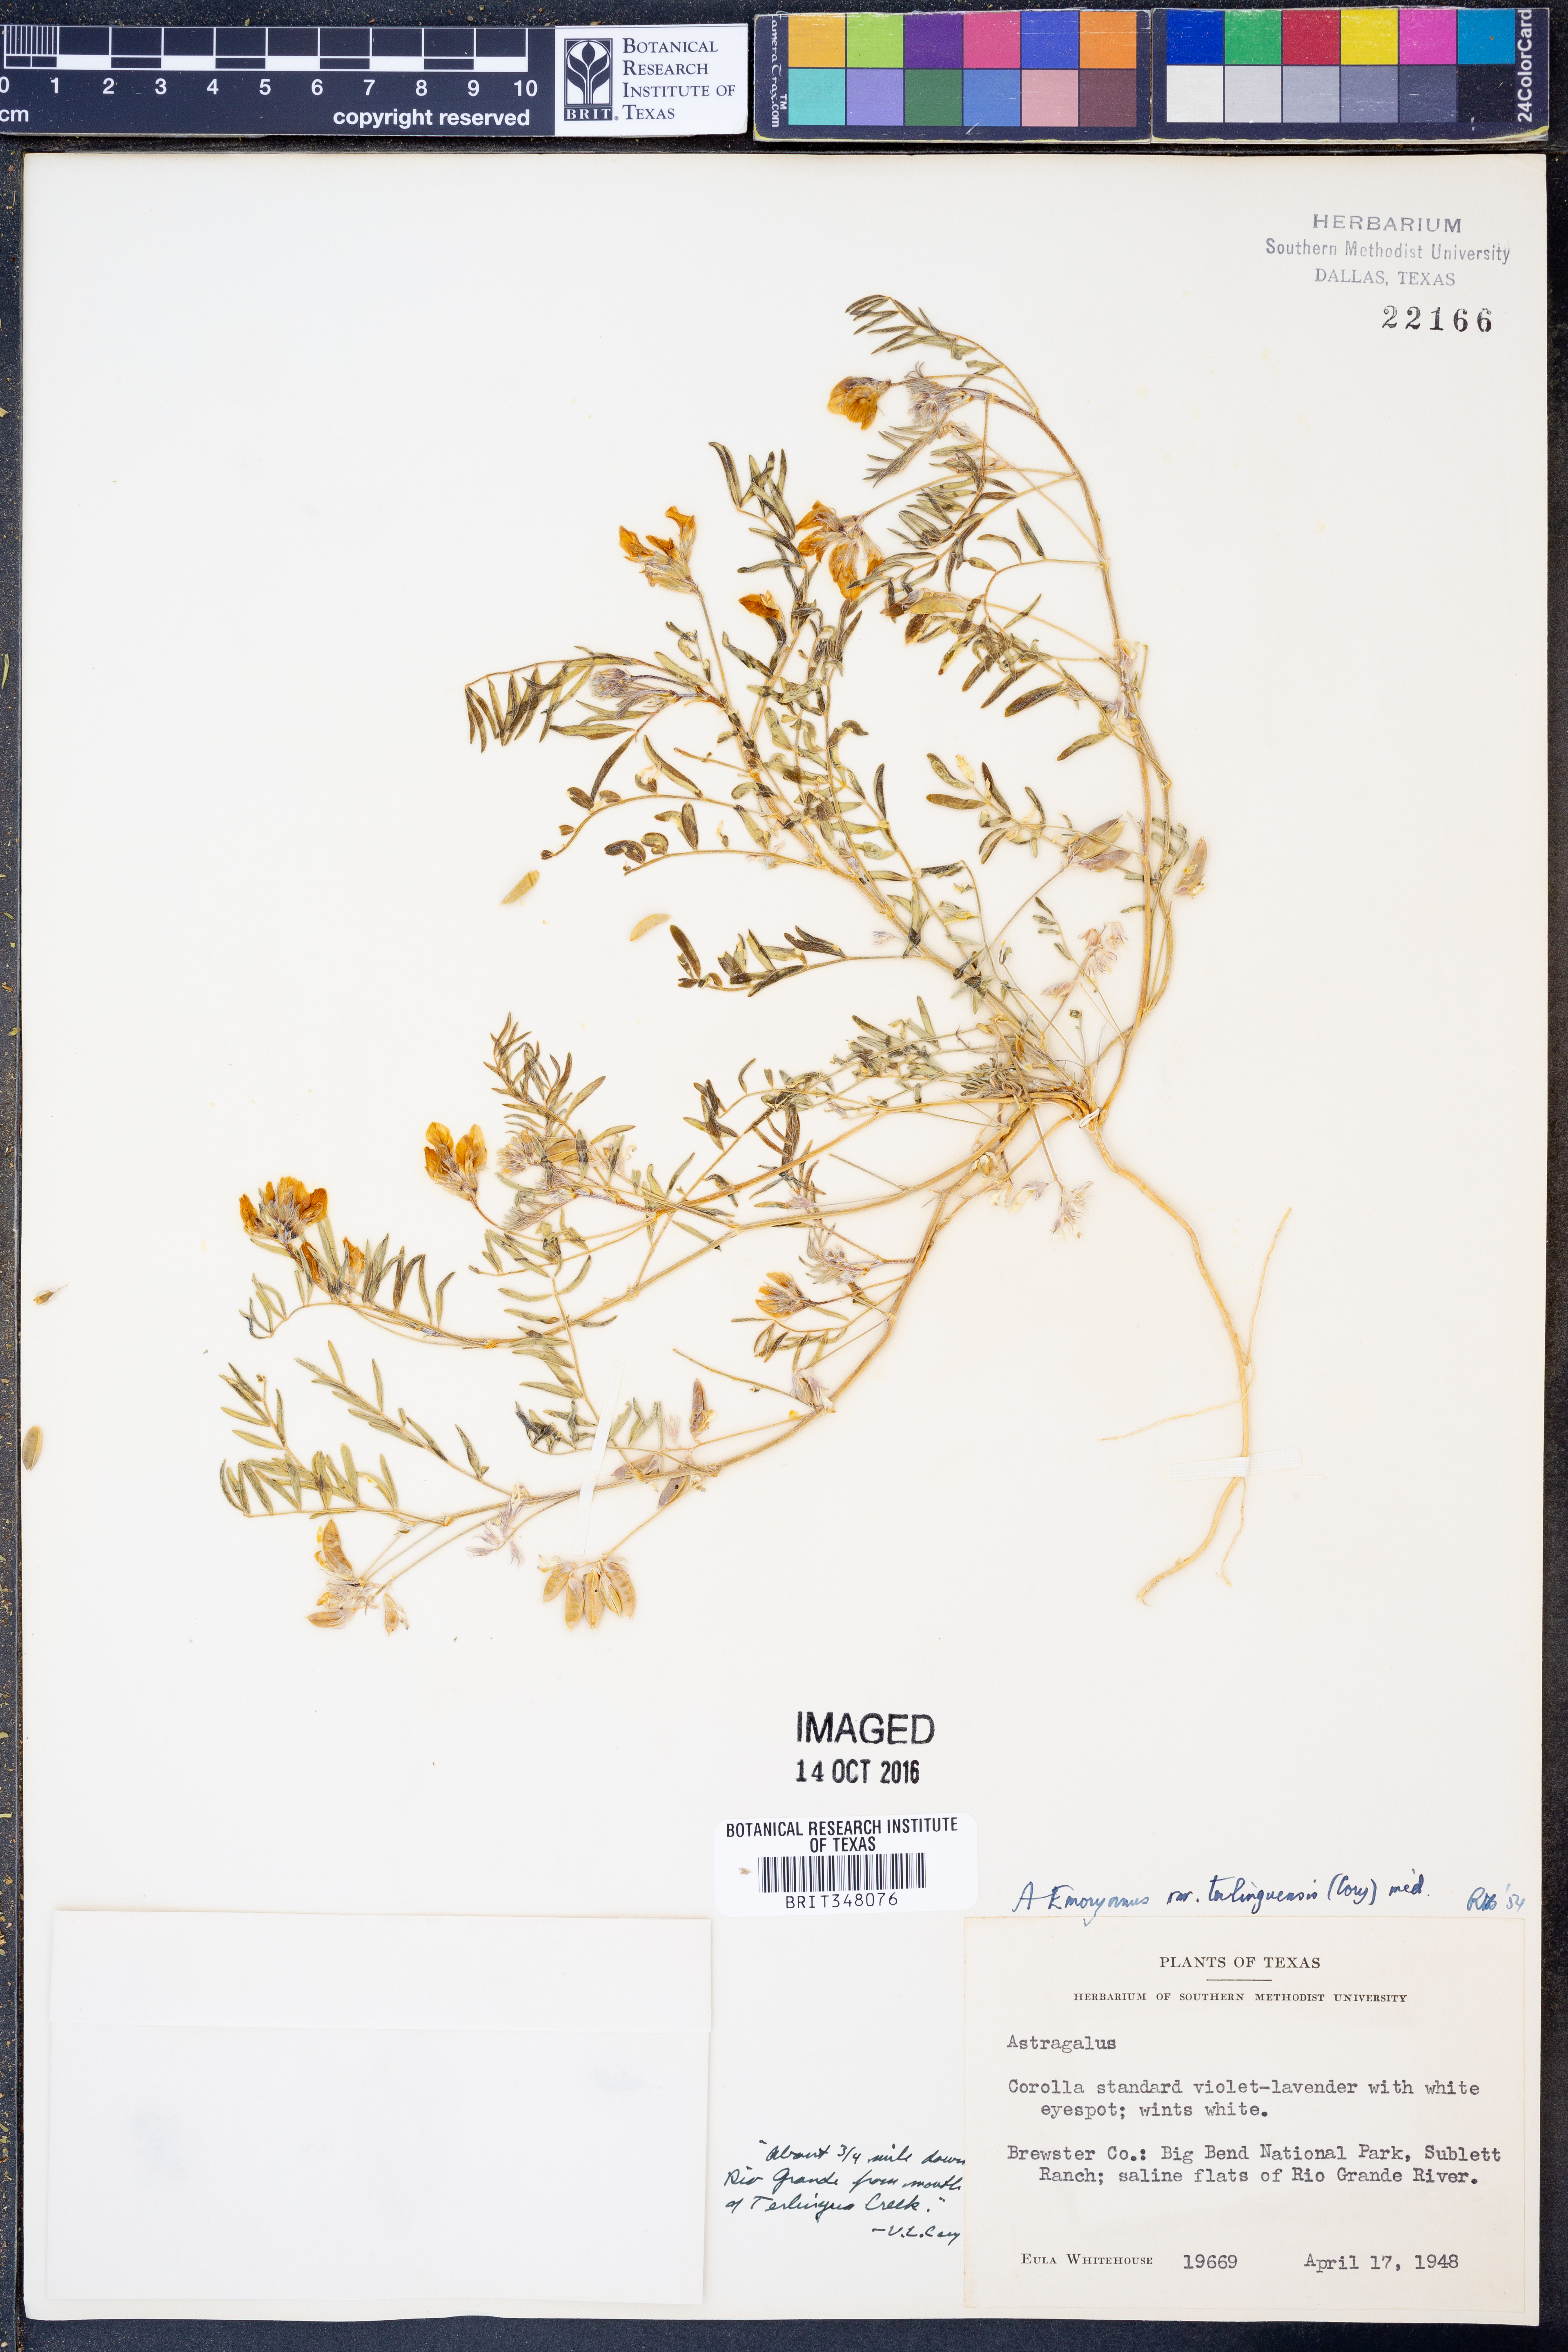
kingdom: Plantae
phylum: Tracheophyta
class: Magnoliopsida
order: Fabales
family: Fabaceae
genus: Astragalus
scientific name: Astragalus emoryanus
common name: Emory's milk-vetch
